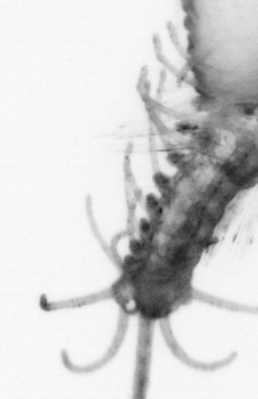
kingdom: Animalia
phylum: Annelida
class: Polychaeta
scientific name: Polychaeta
